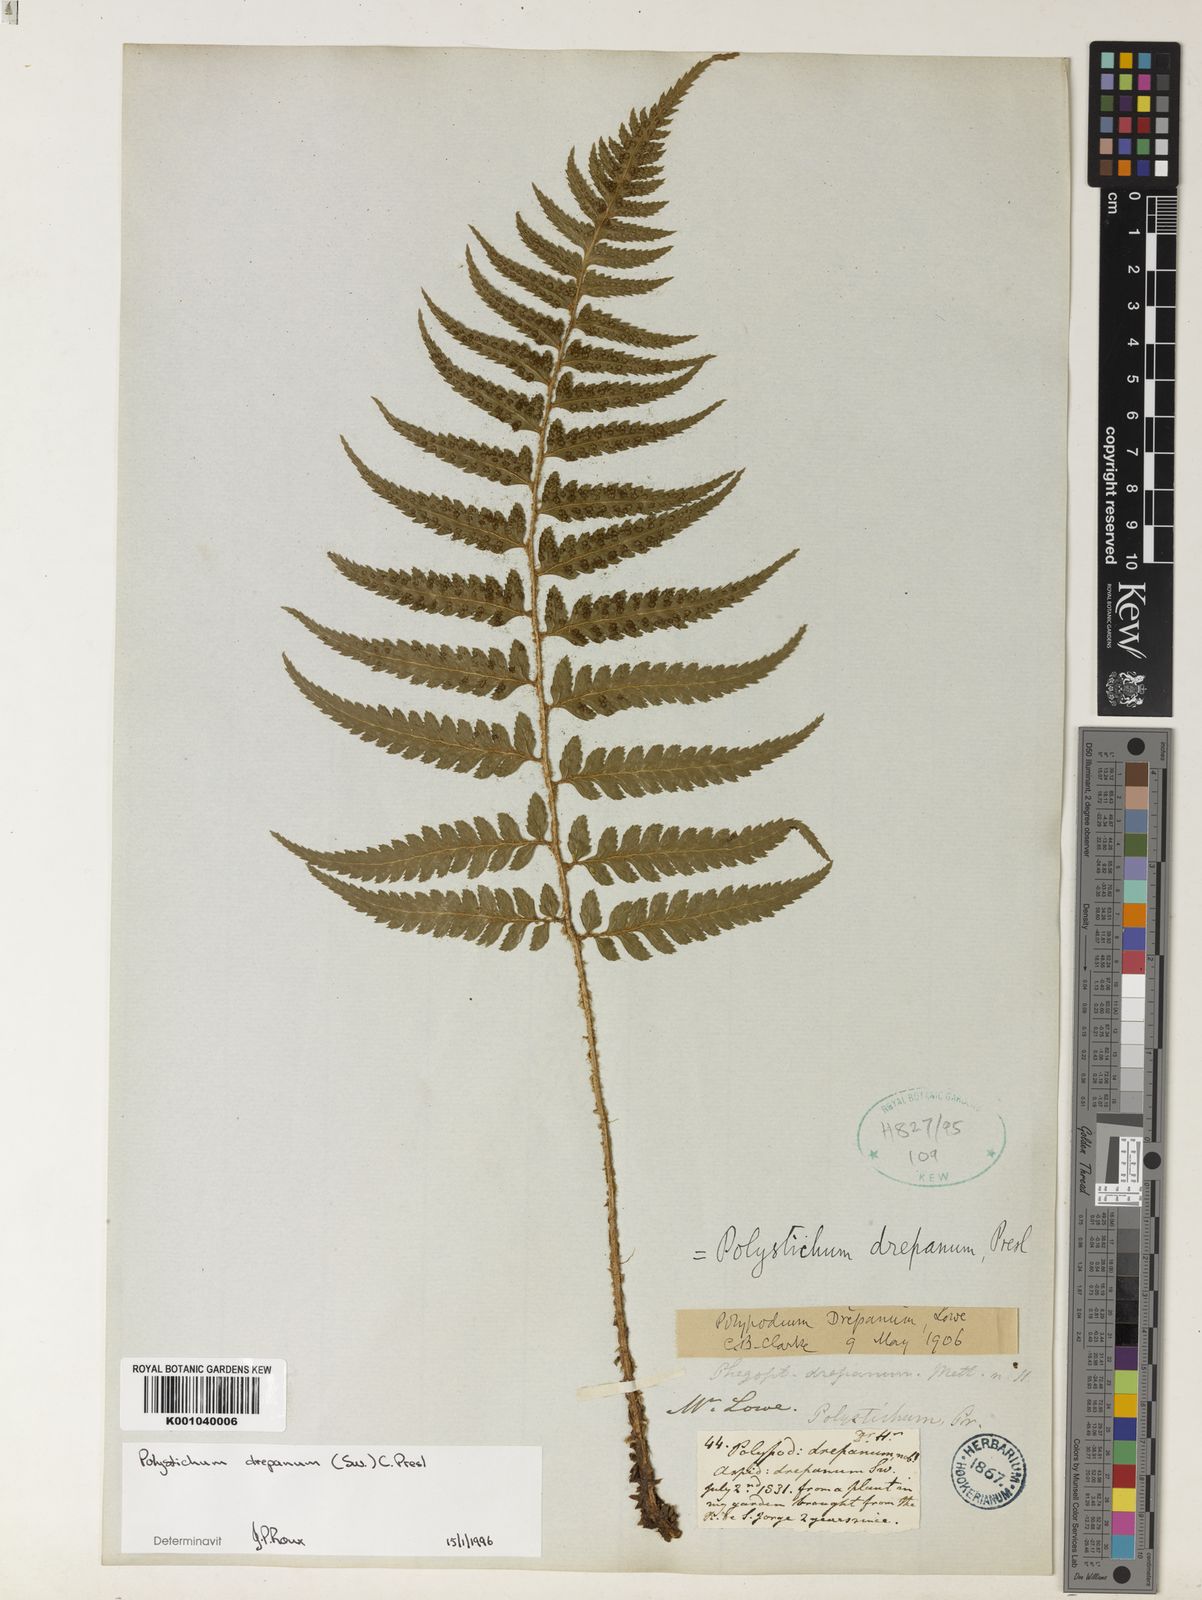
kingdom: Plantae
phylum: Tracheophyta
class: Polypodiopsida
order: Polypodiales
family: Dryopteridaceae
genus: Polystichum
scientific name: Polystichum drepanum
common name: Madeira shield-fern
